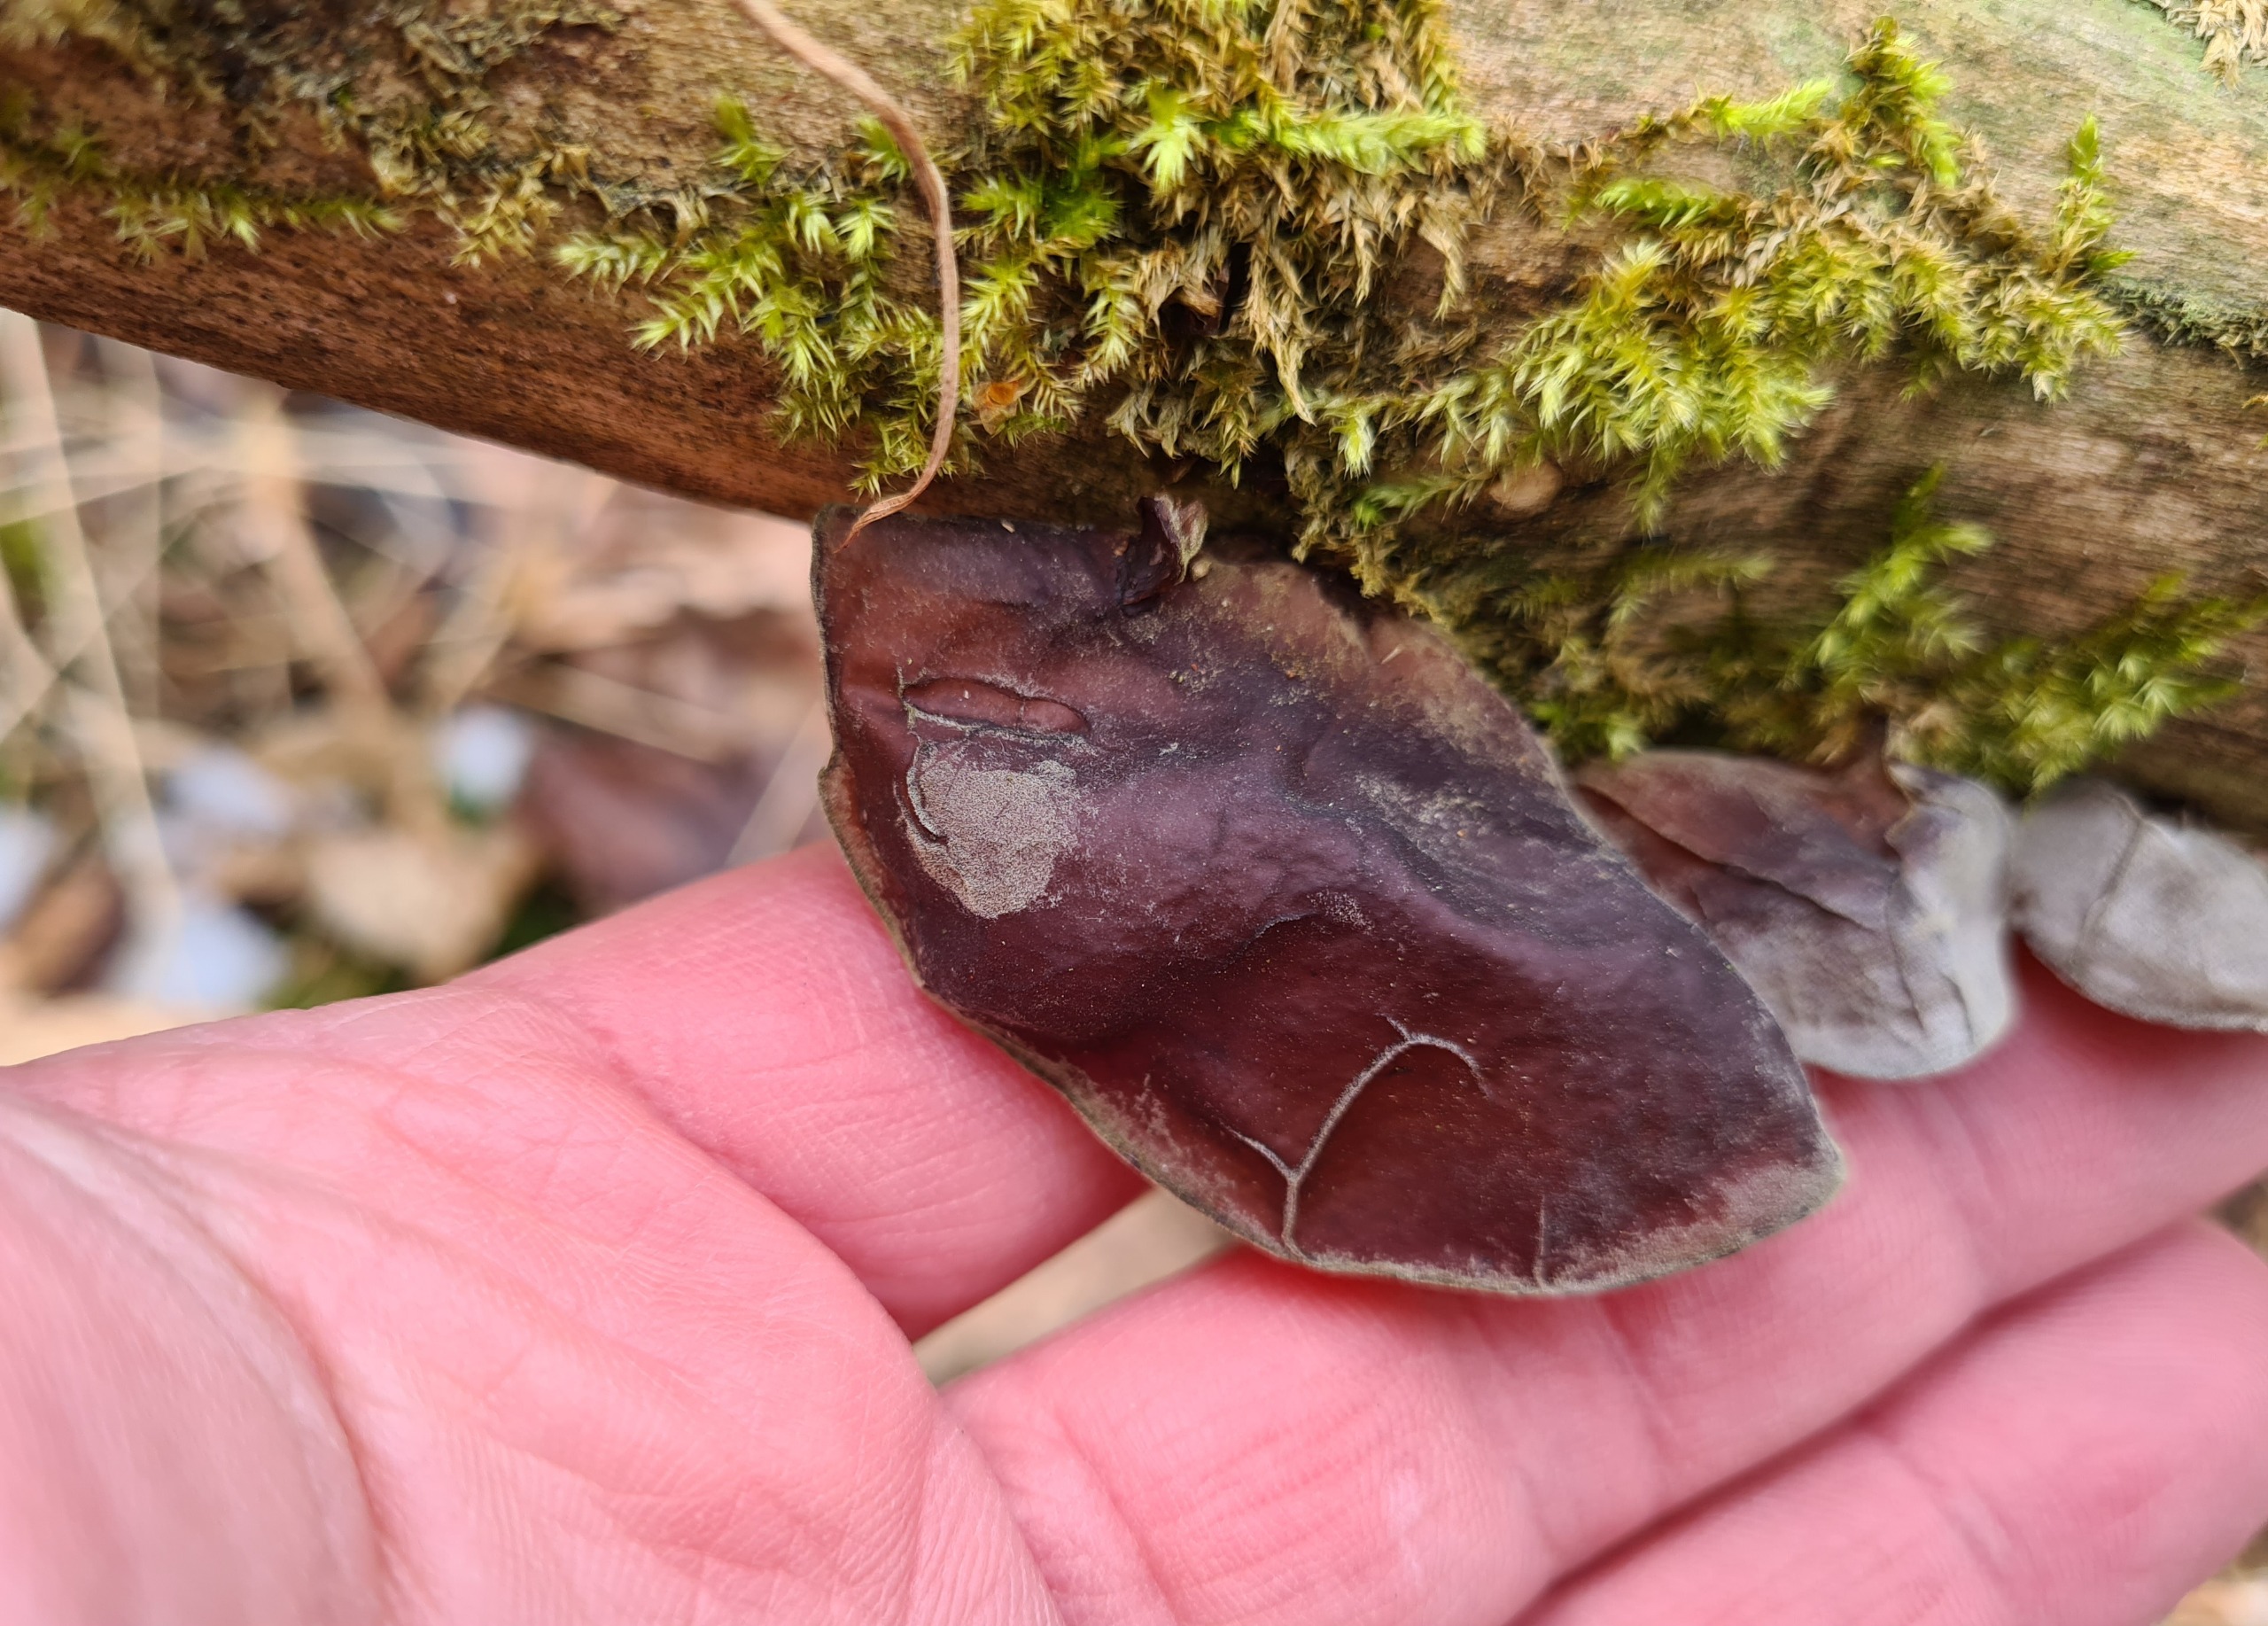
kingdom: Fungi
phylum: Basidiomycota
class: Agaricomycetes
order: Auriculariales
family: Auriculariaceae
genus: Auricularia
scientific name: Auricularia auricula-judae
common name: Almindelig judasøre
